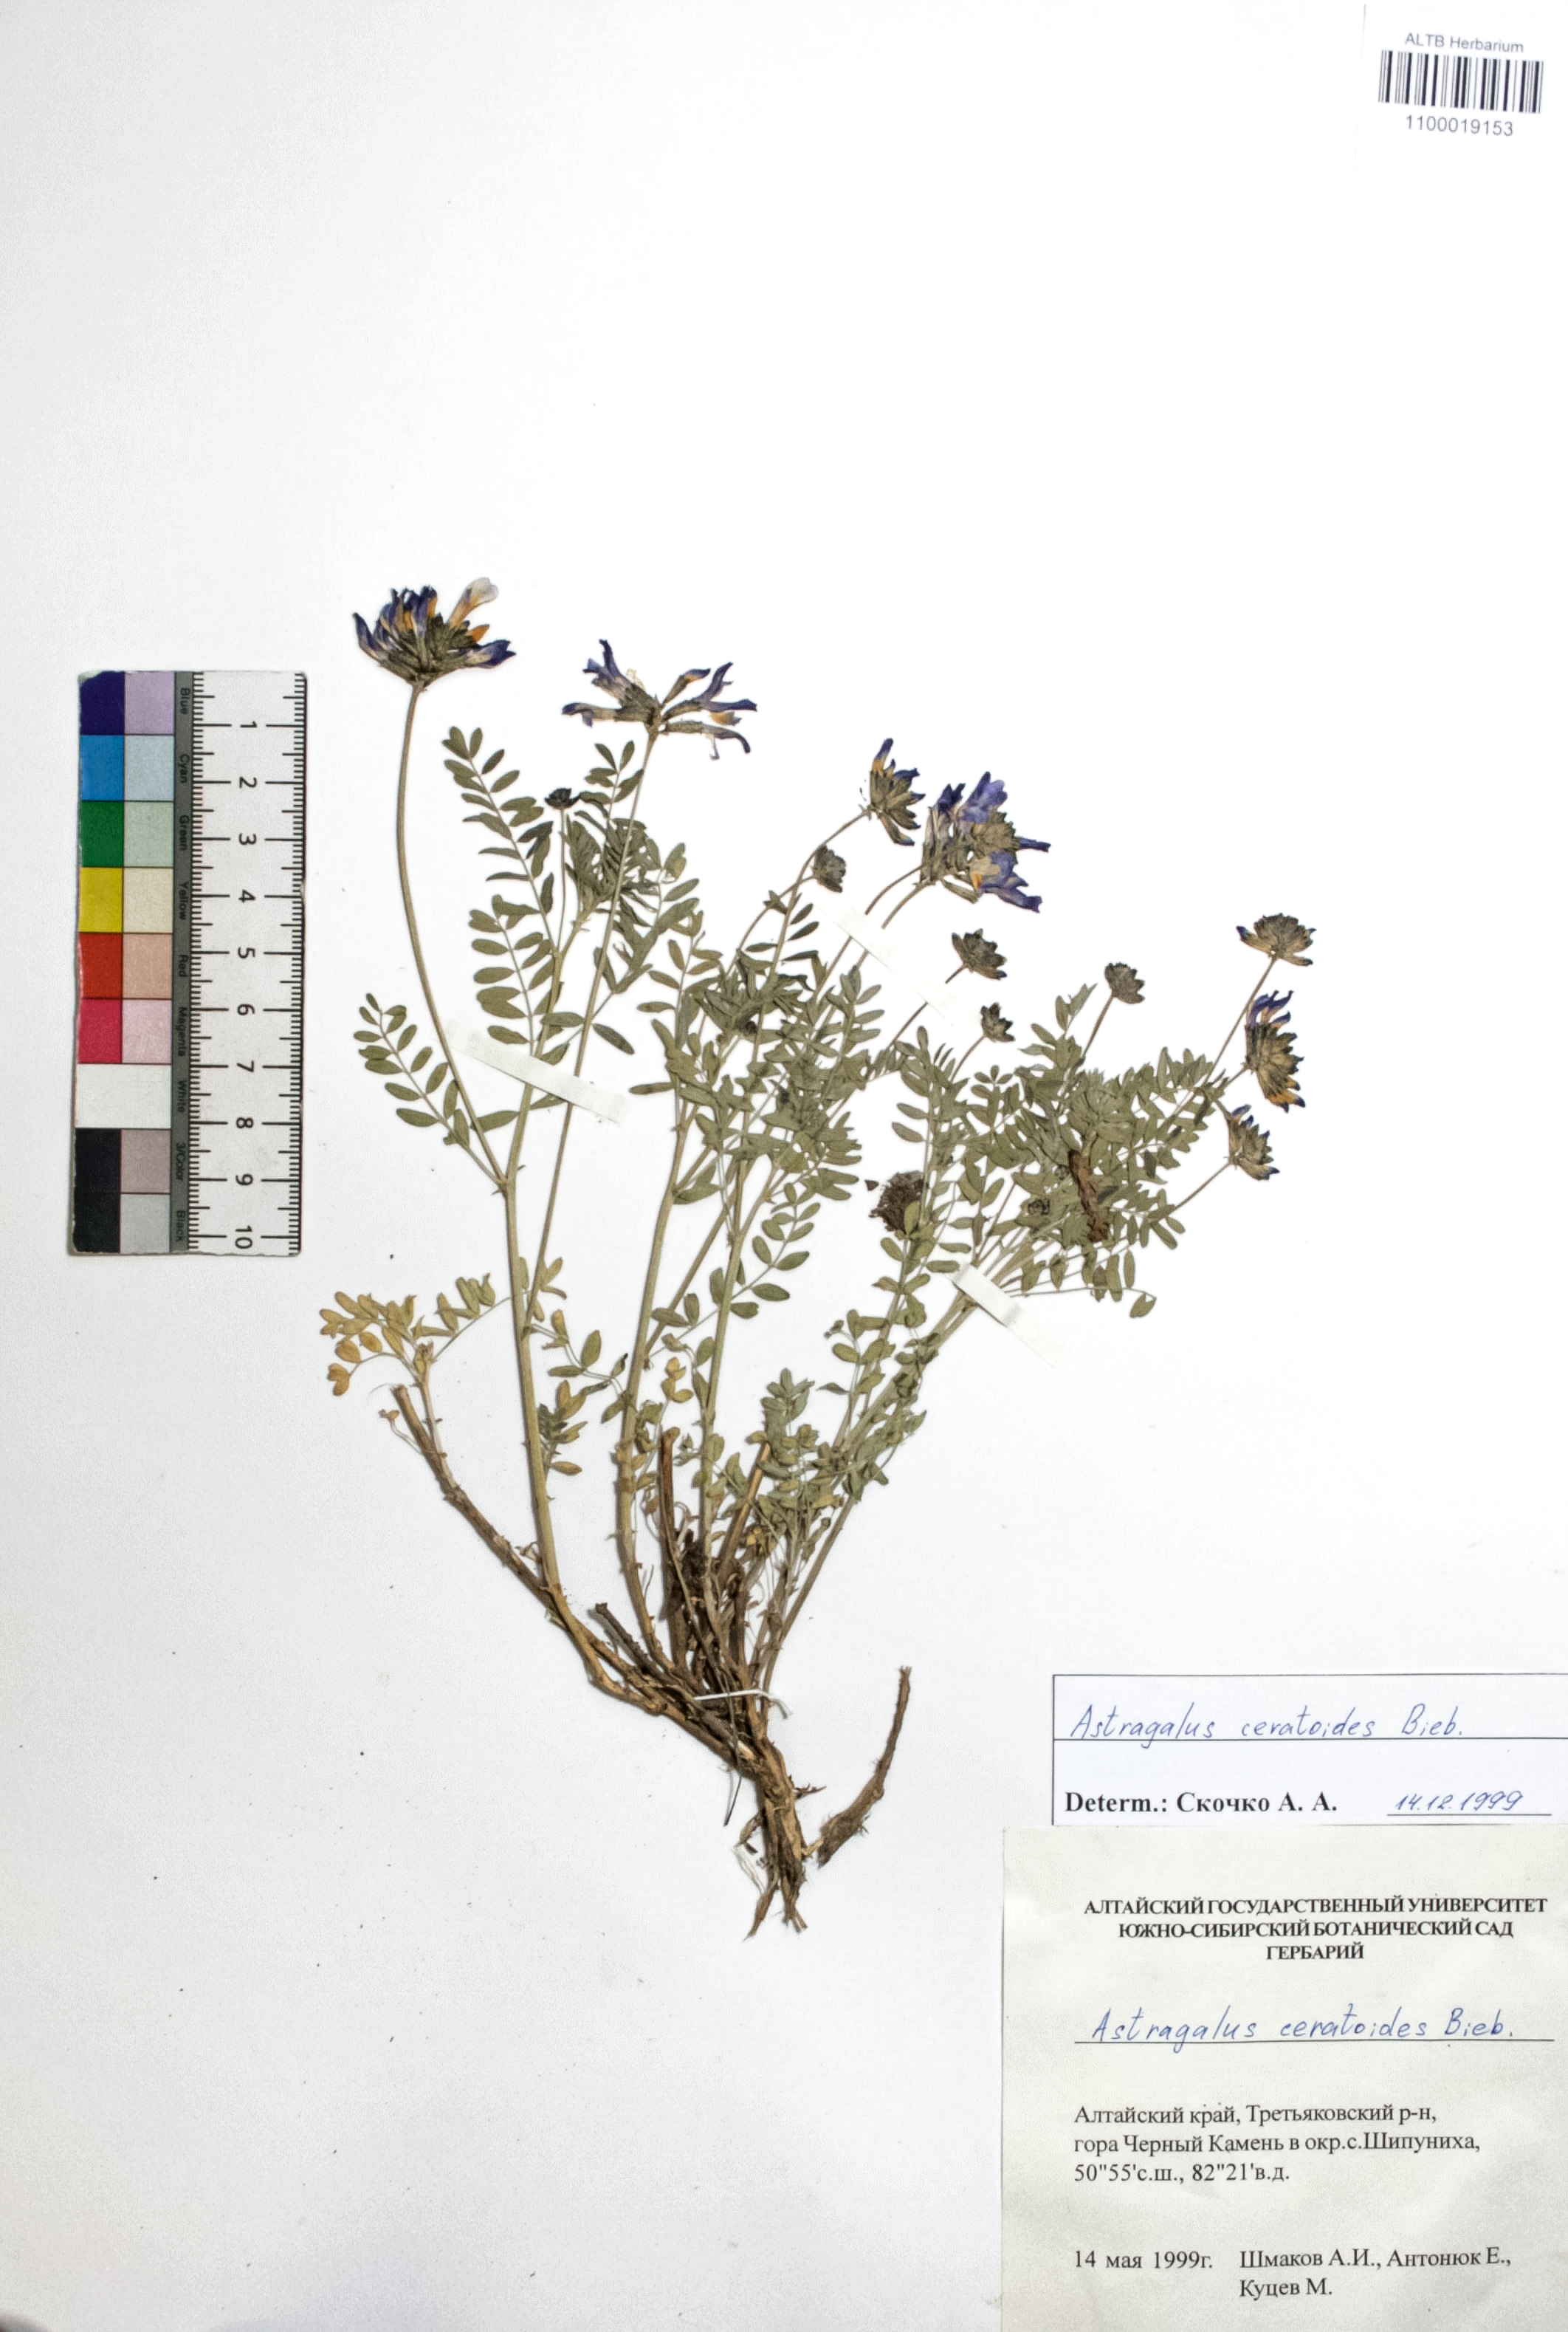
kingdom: Plantae
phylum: Tracheophyta
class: Magnoliopsida
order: Fabales
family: Fabaceae
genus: Astragalus
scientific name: Astragalus ceratoides
